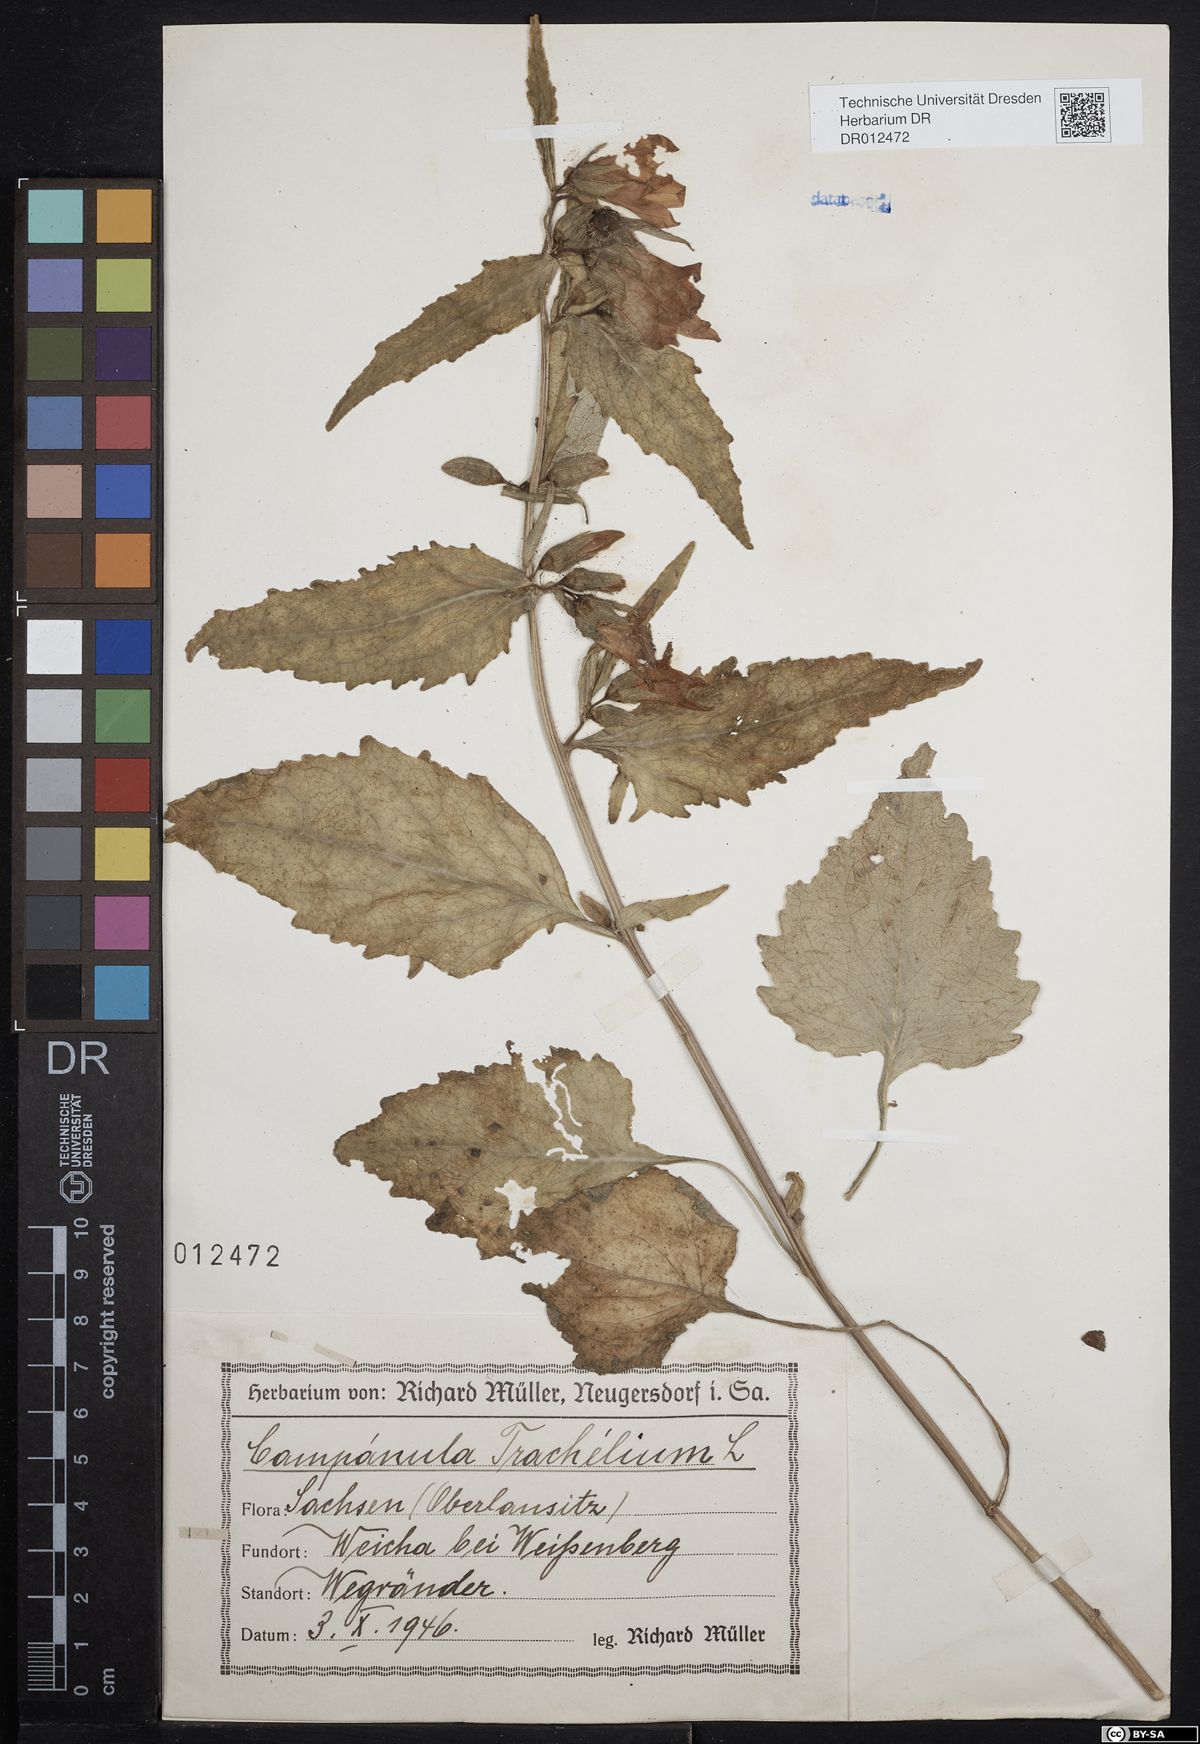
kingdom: Plantae
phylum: Tracheophyta
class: Magnoliopsida
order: Asterales
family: Campanulaceae
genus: Campanula
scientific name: Campanula trachelium
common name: Nettle-leaved bellflower
